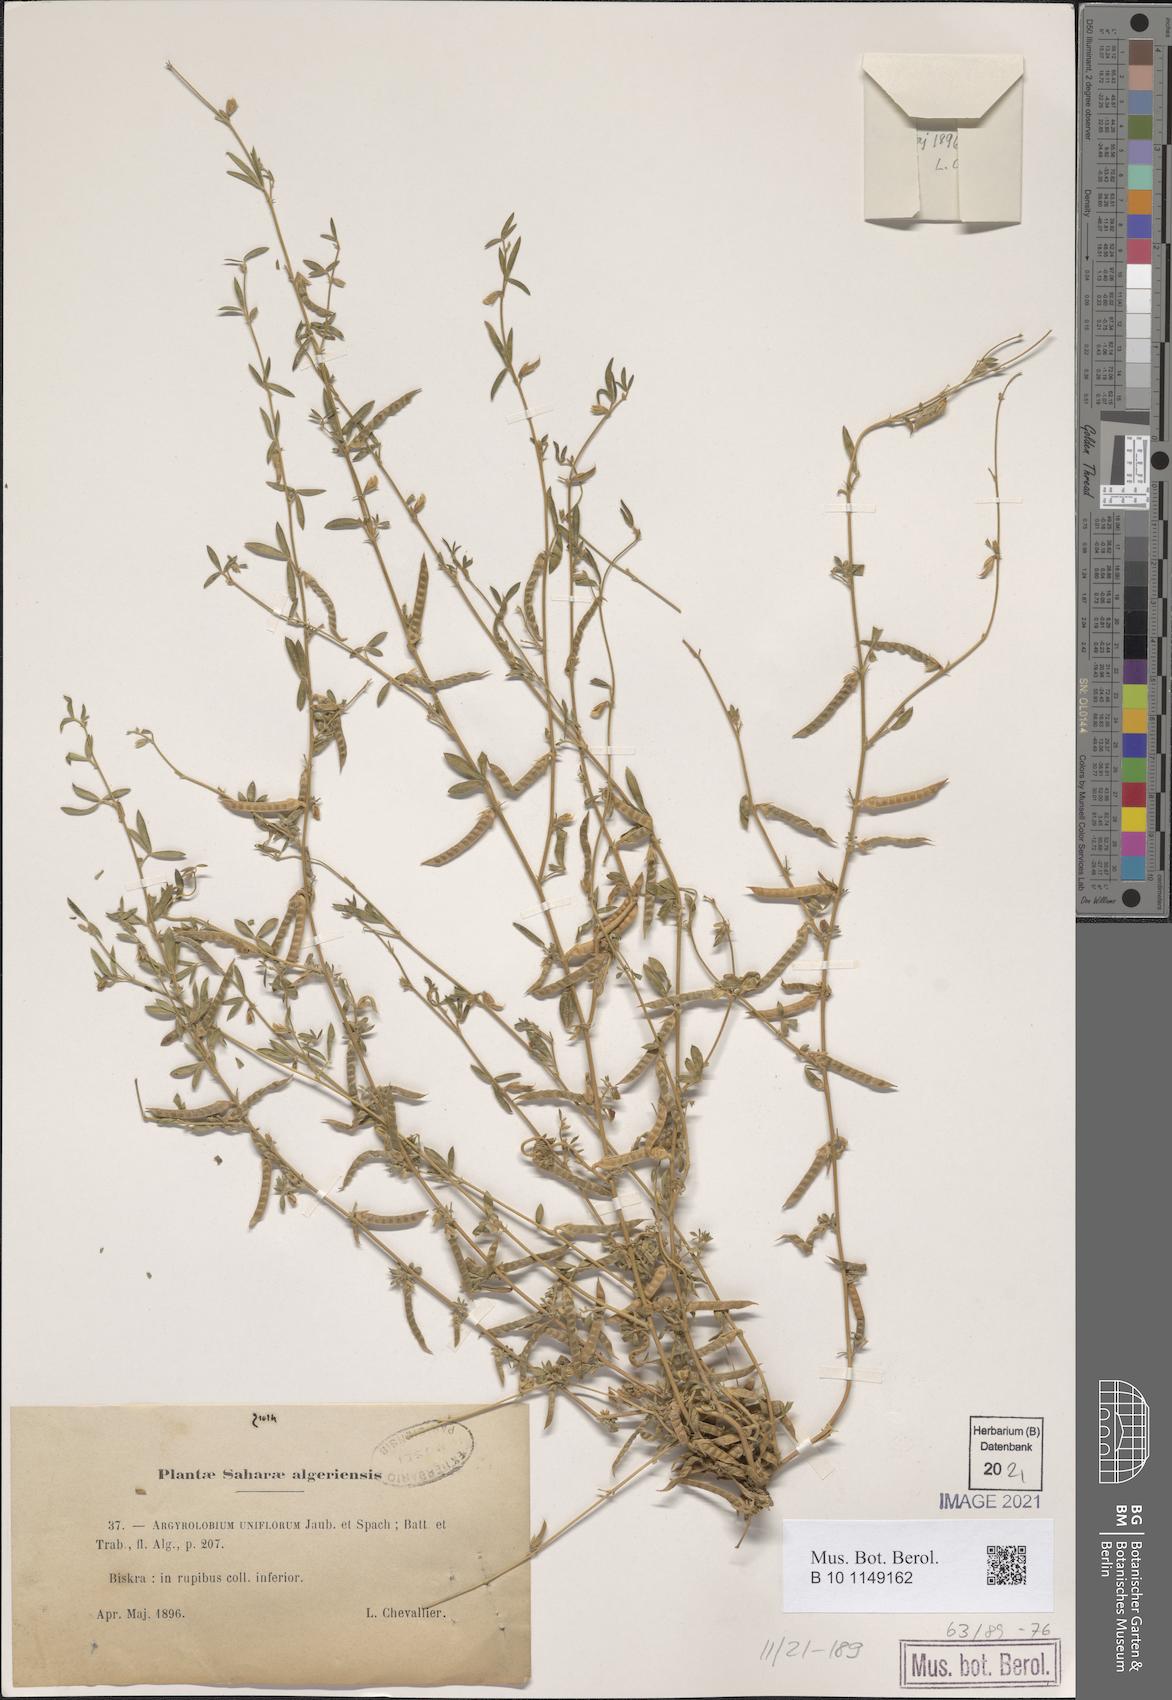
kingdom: Plantae
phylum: Tracheophyta
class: Magnoliopsida
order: Fabales
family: Fabaceae
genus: Argyrolobium
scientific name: Argyrolobium uniflorum
